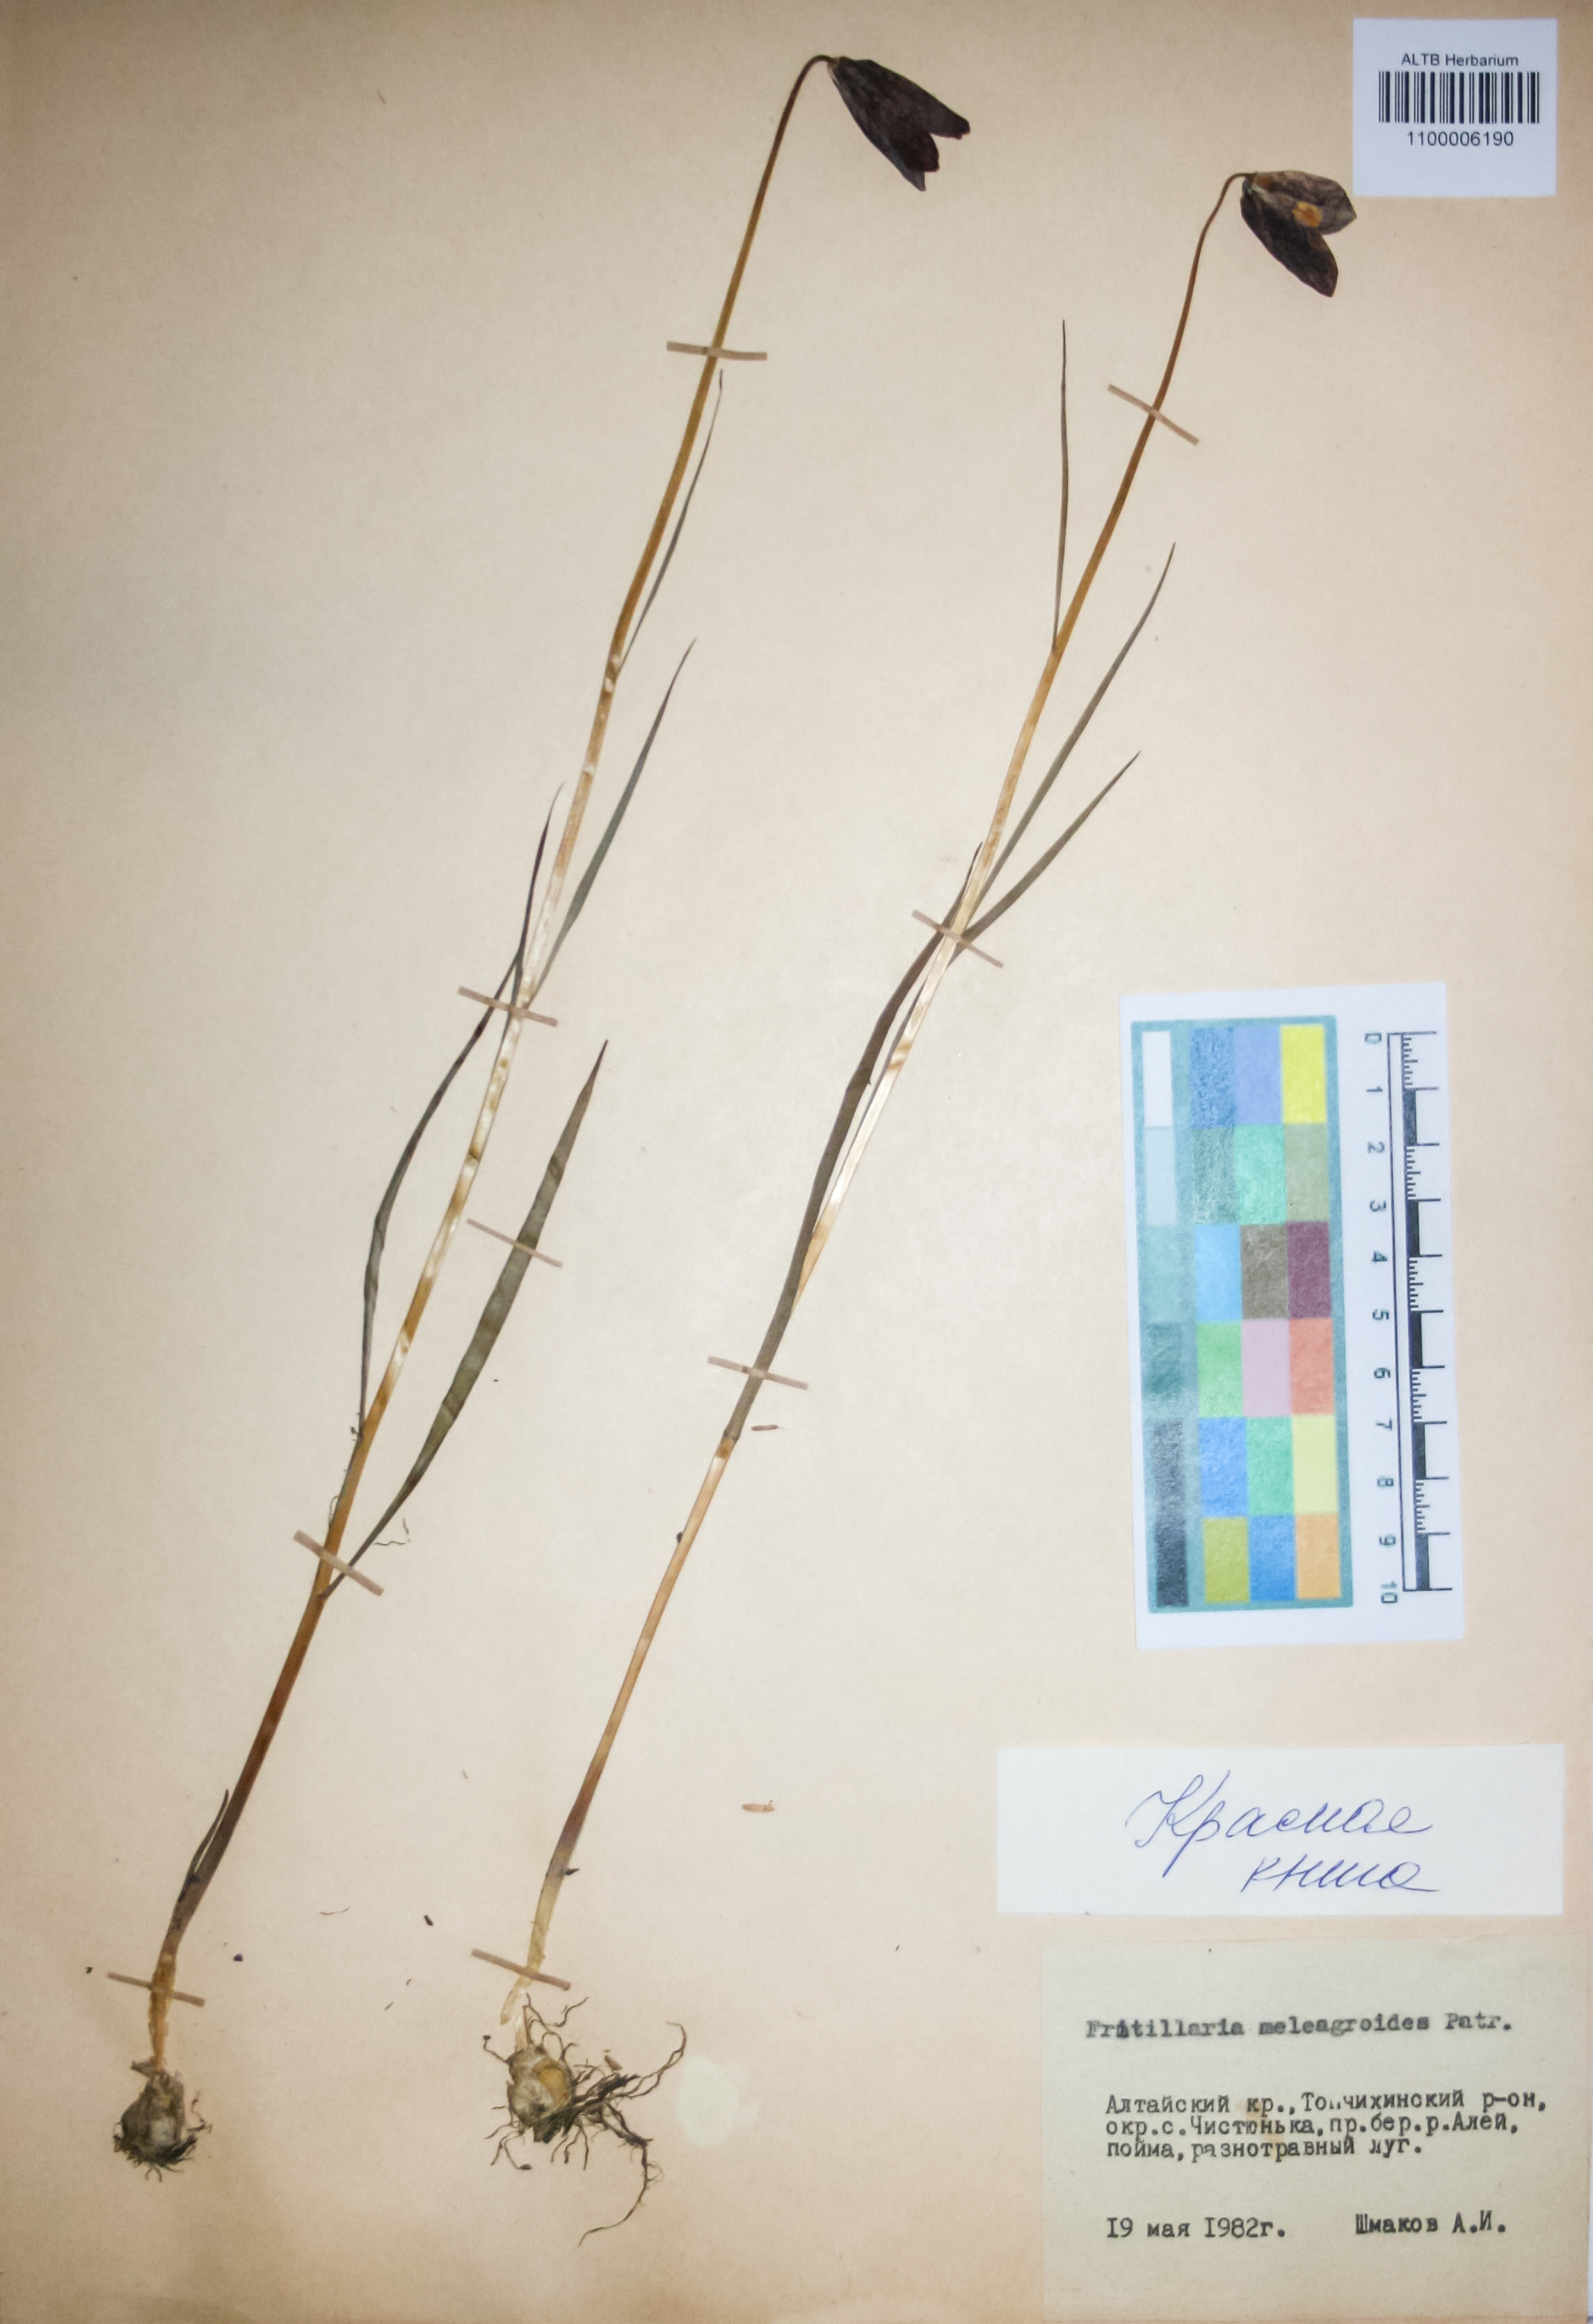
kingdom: Plantae
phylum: Tracheophyta
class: Liliopsida
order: Liliales
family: Liliaceae
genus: Fritillaria
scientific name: Fritillaria meleagroides
